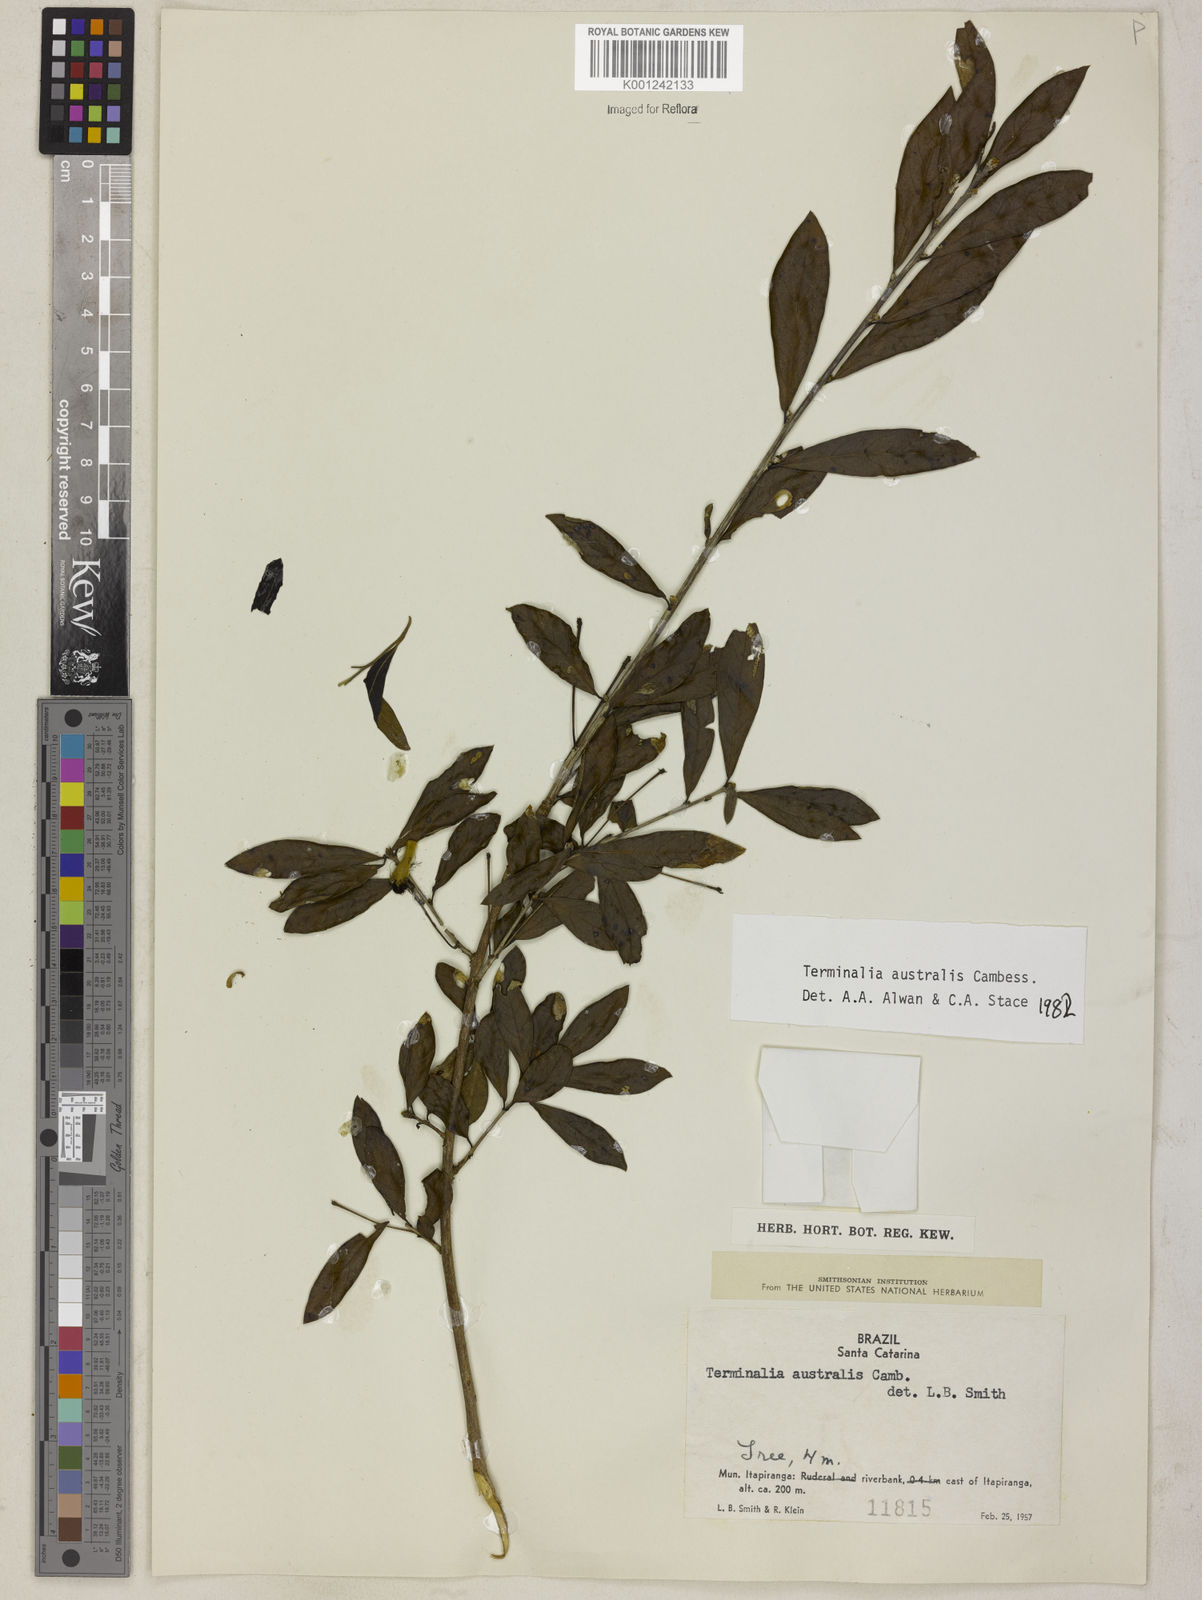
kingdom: Plantae
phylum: Tracheophyta
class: Magnoliopsida
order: Myrtales
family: Combretaceae
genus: Terminalia
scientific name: Terminalia australis
